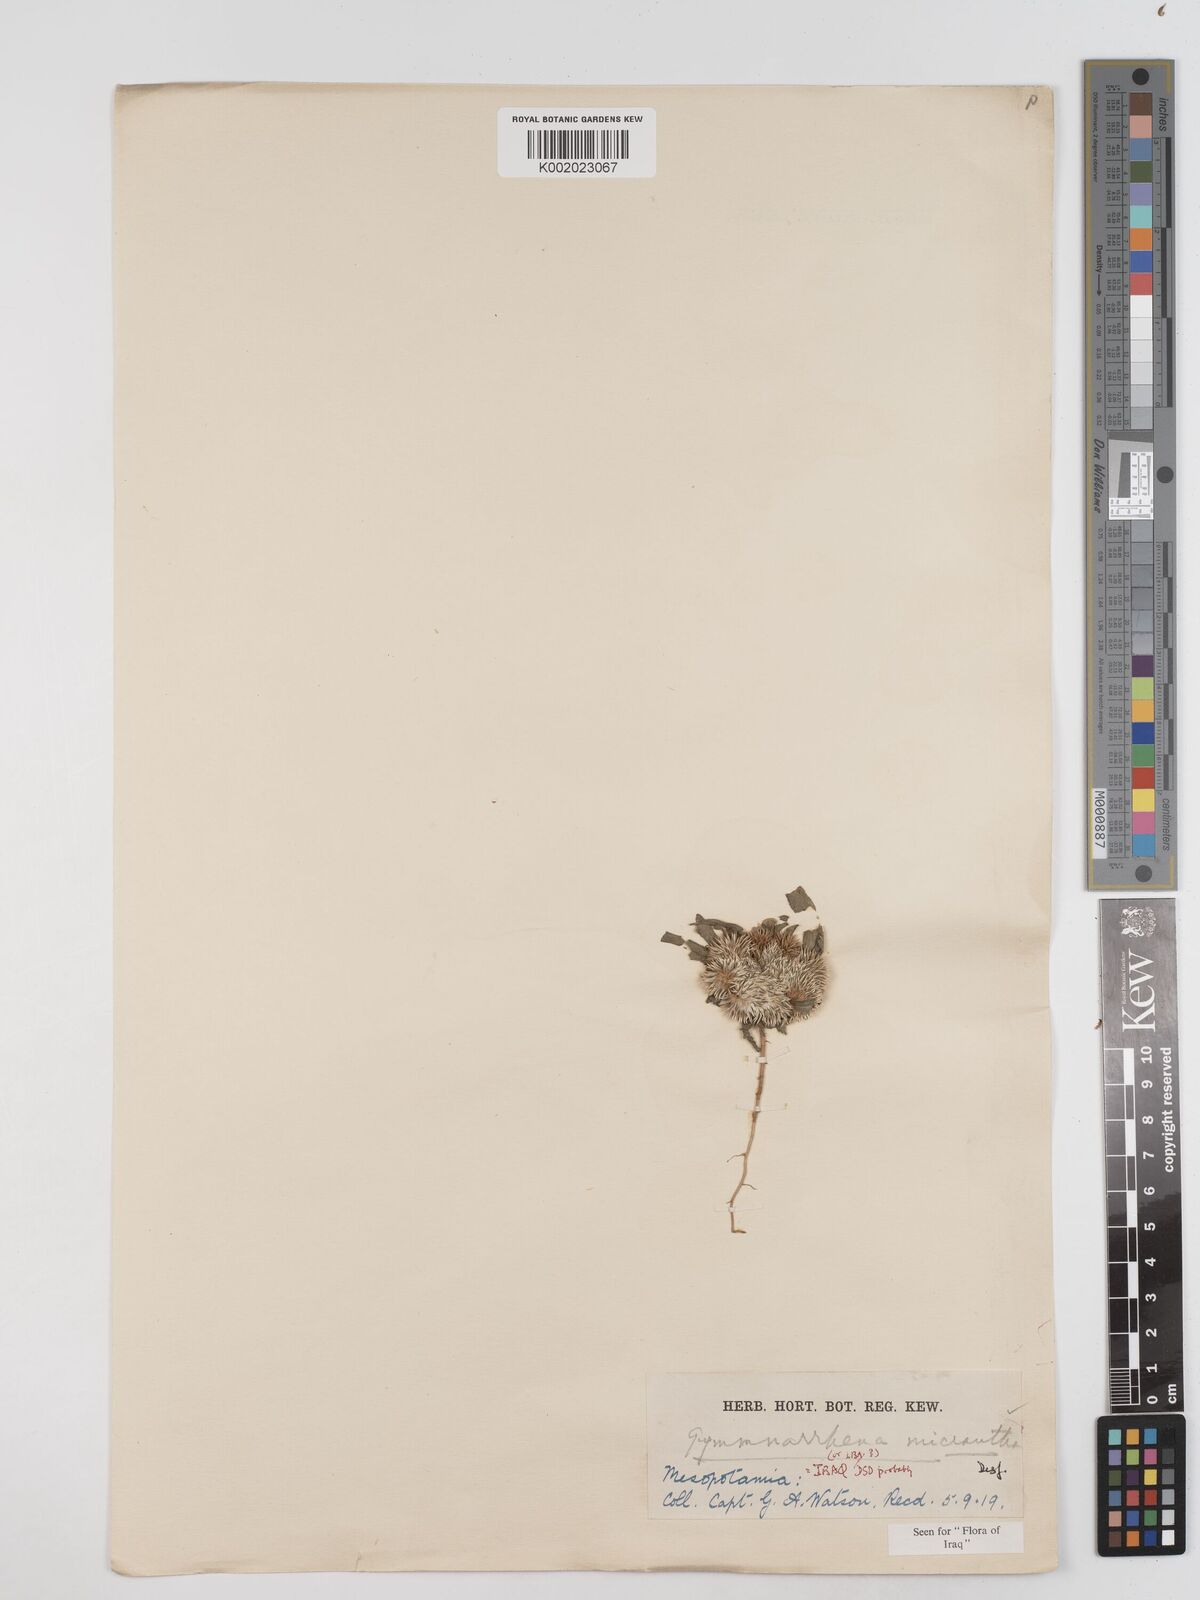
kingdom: Plantae
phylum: Tracheophyta
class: Magnoliopsida
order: Asterales
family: Asteraceae
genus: Gymnarrhena
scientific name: Gymnarrhena micrantha
